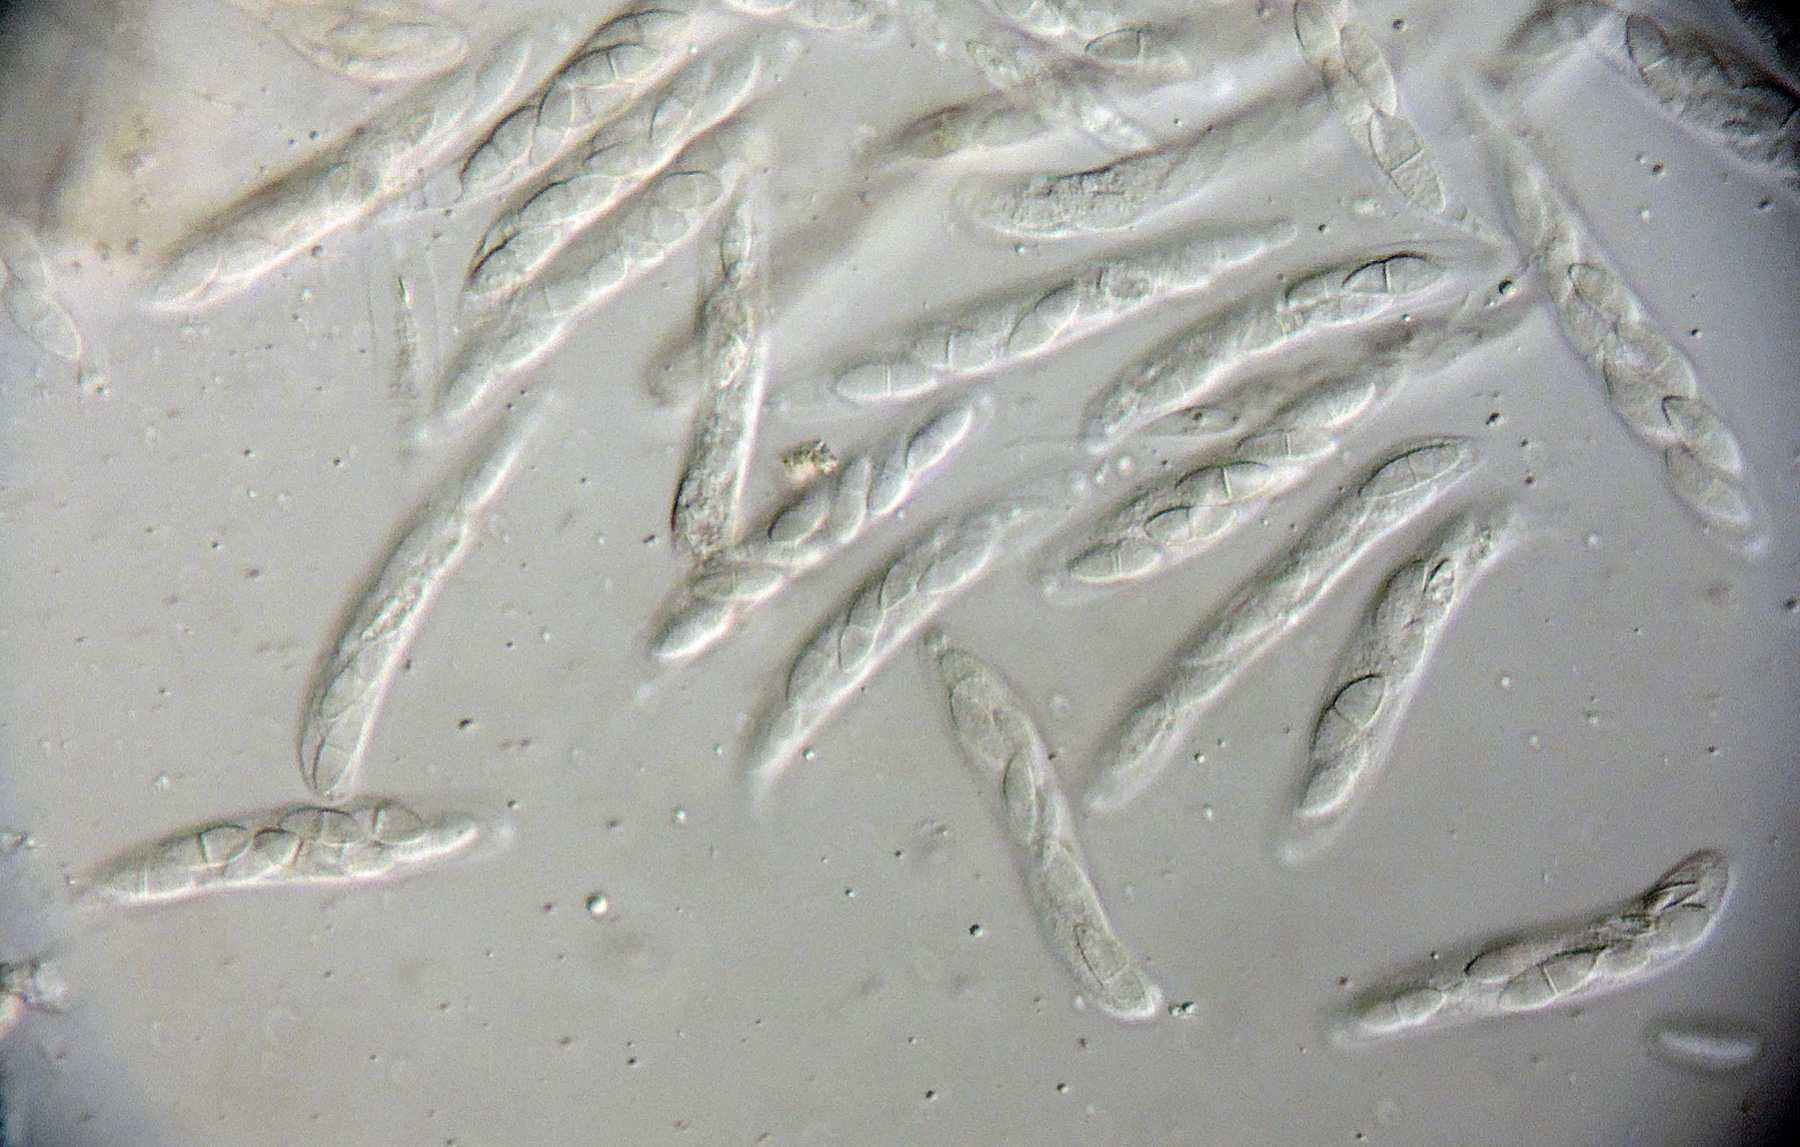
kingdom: Fungi
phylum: Ascomycota
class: Sordariomycetes
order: Diaporthales
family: Gnomoniaceae
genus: Plagiostoma
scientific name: Plagiostoma apiculatum
